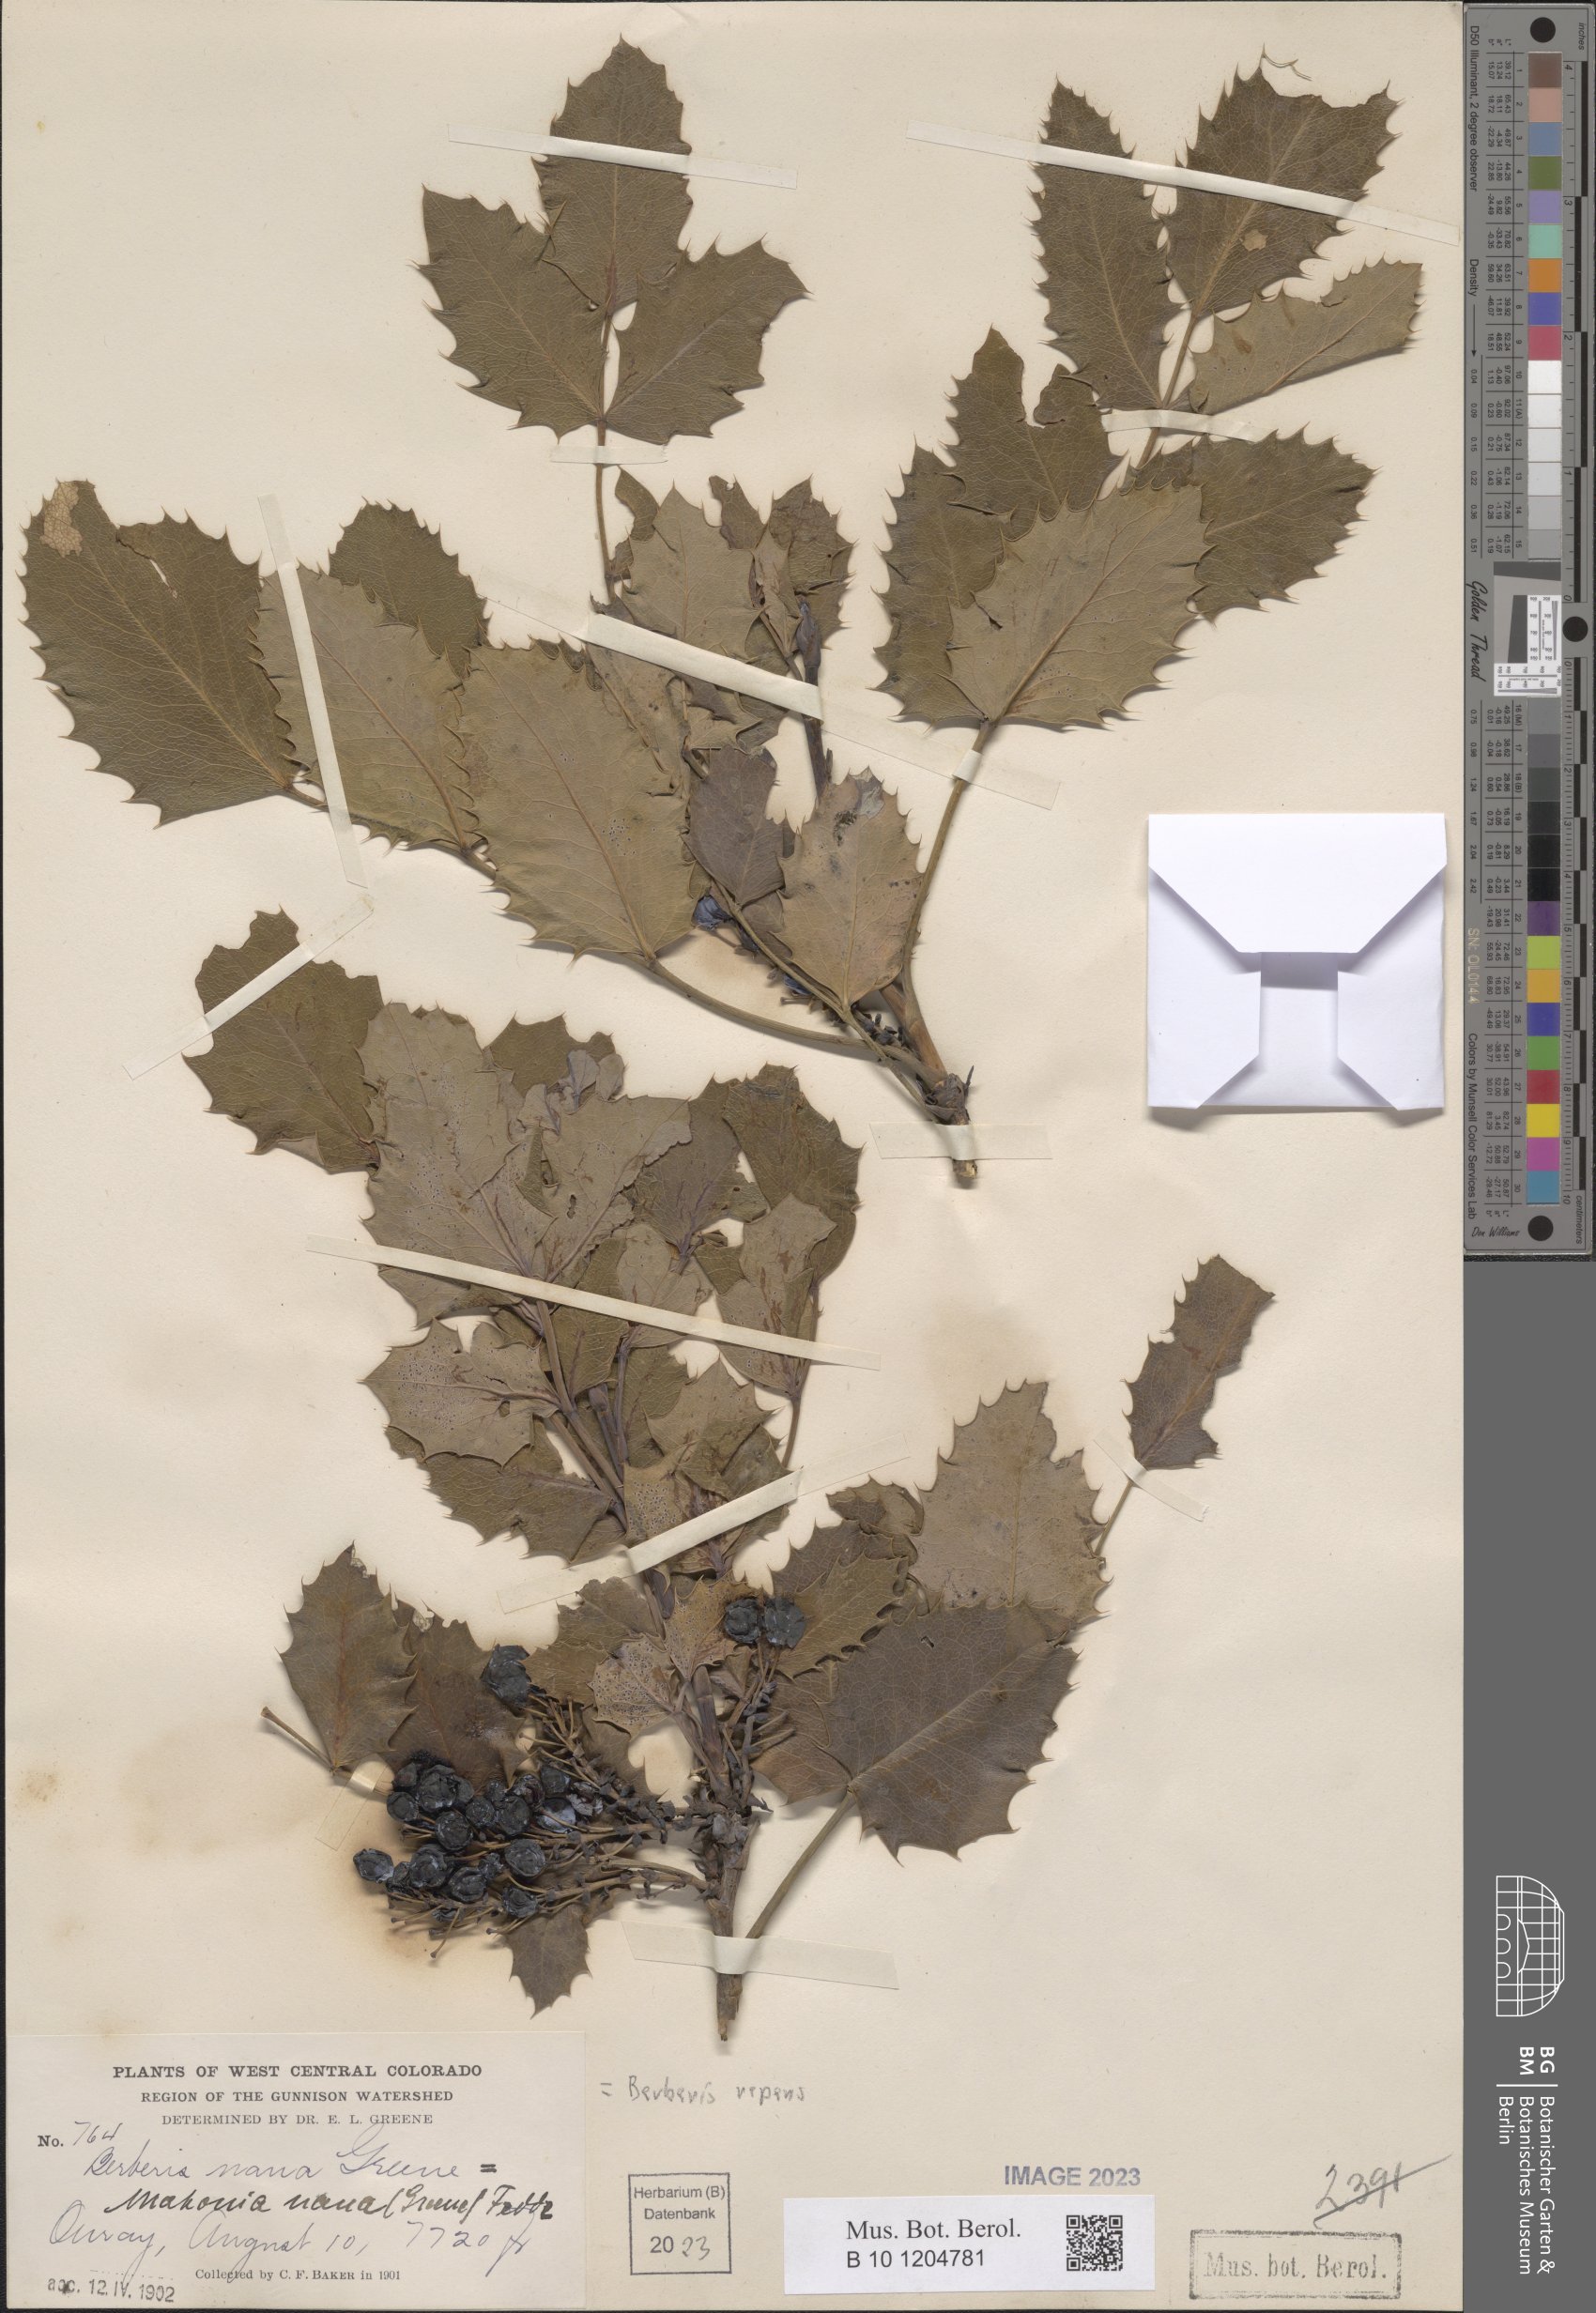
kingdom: Plantae
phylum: Tracheophyta
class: Magnoliopsida
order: Ranunculales
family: Berberidaceae
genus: Mahonia
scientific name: Mahonia repens
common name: Creeping oregon-grape
